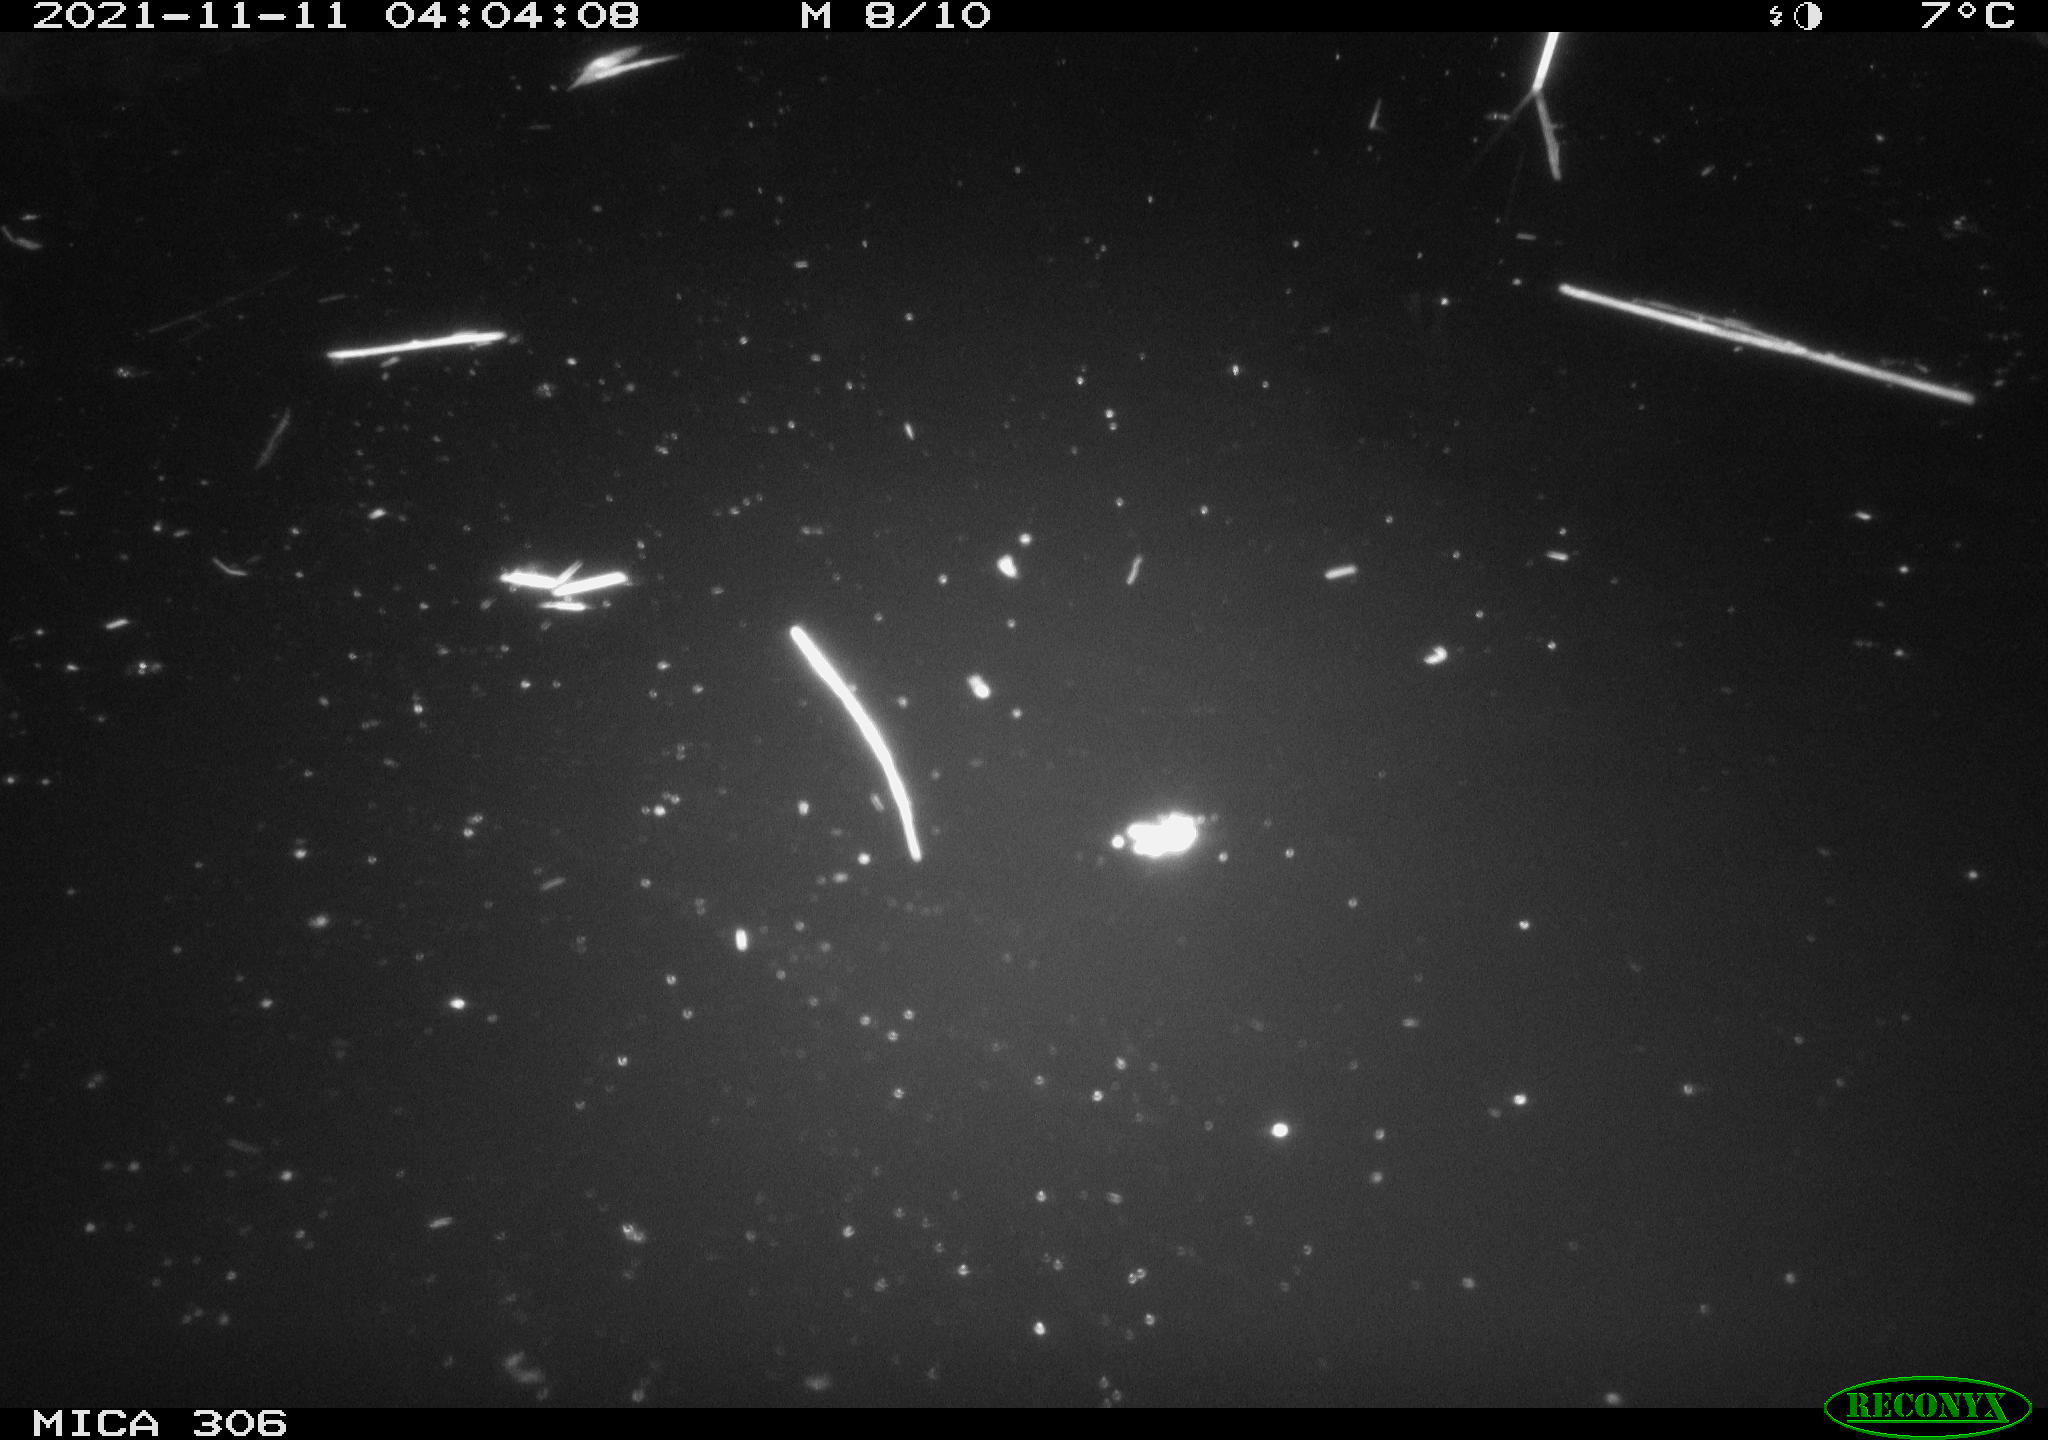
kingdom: Animalia
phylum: Chordata
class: Mammalia
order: Rodentia
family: Cricetidae
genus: Ondatra
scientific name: Ondatra zibethicus
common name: Muskrat
